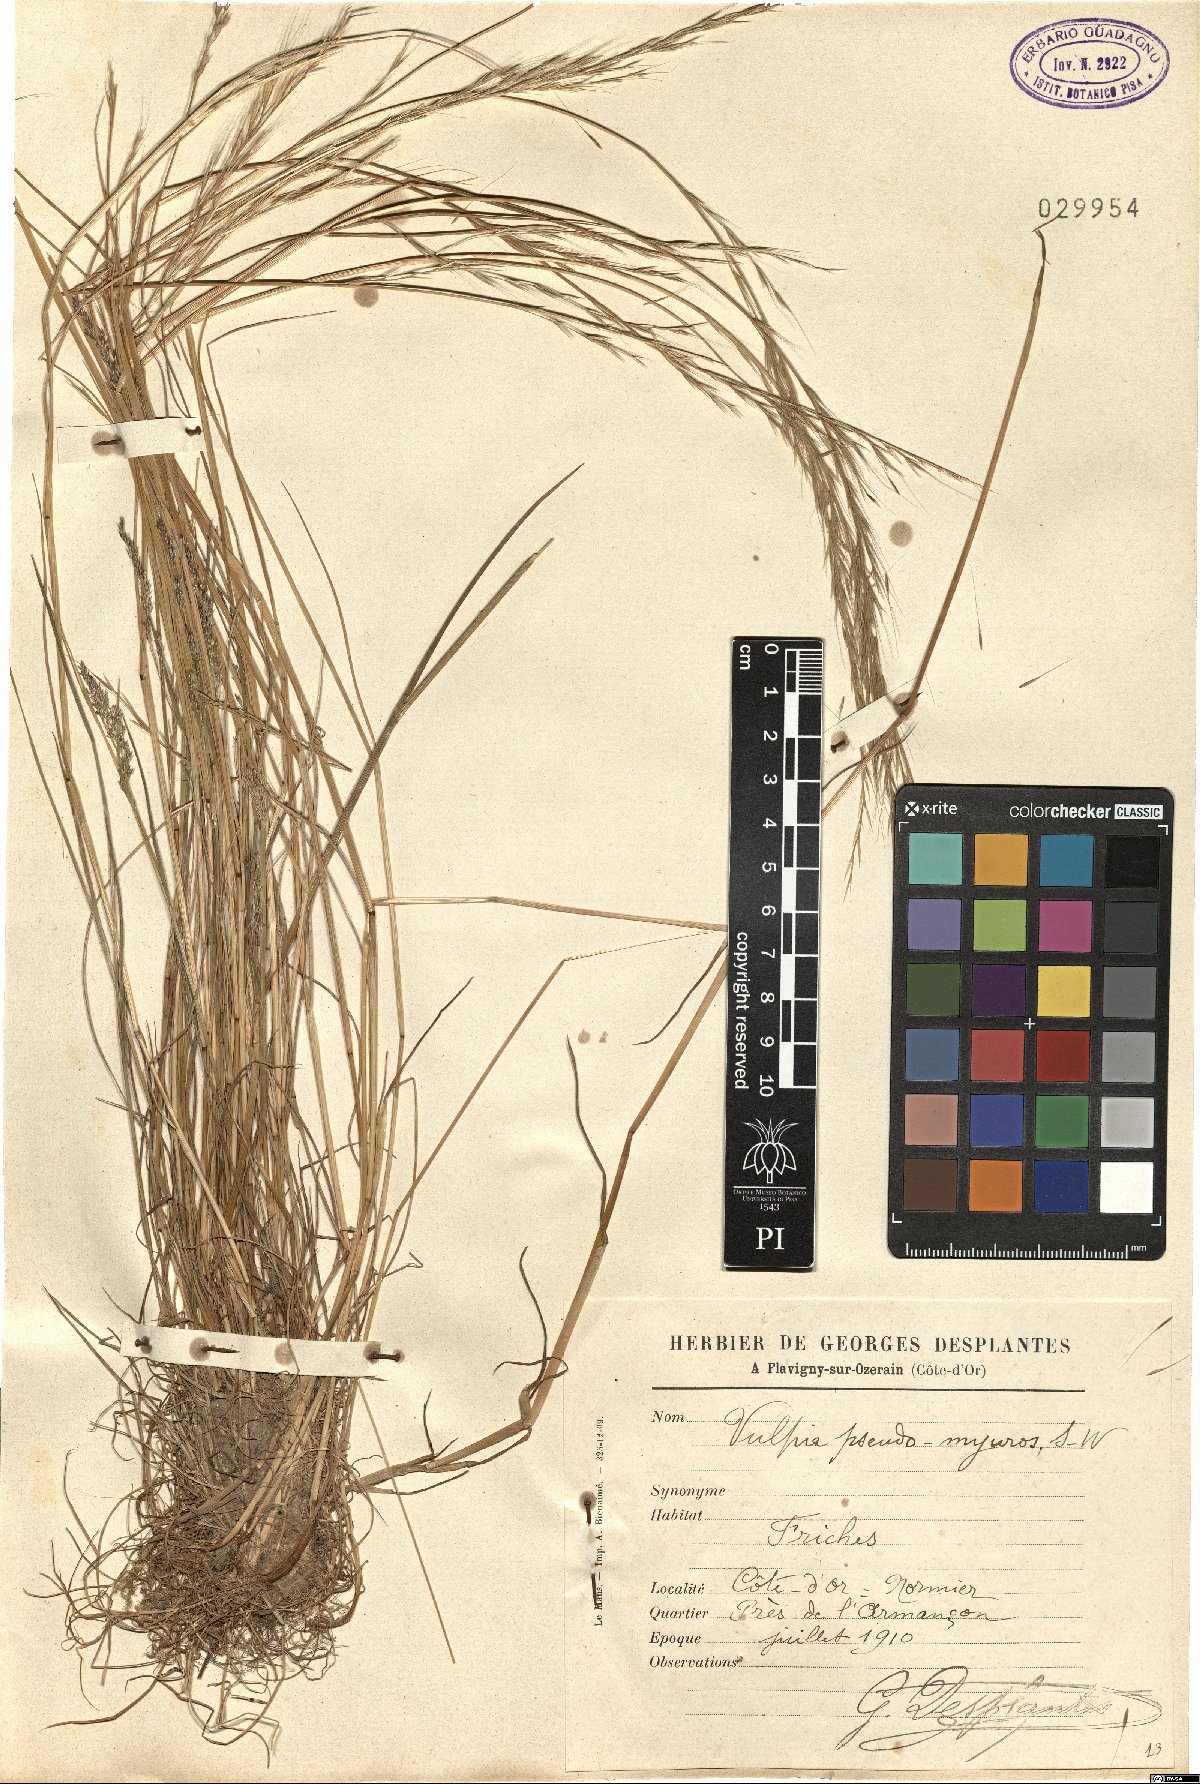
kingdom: Plantae
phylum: Tracheophyta
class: Liliopsida
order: Poales
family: Poaceae
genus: Festuca
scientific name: Festuca myuros
